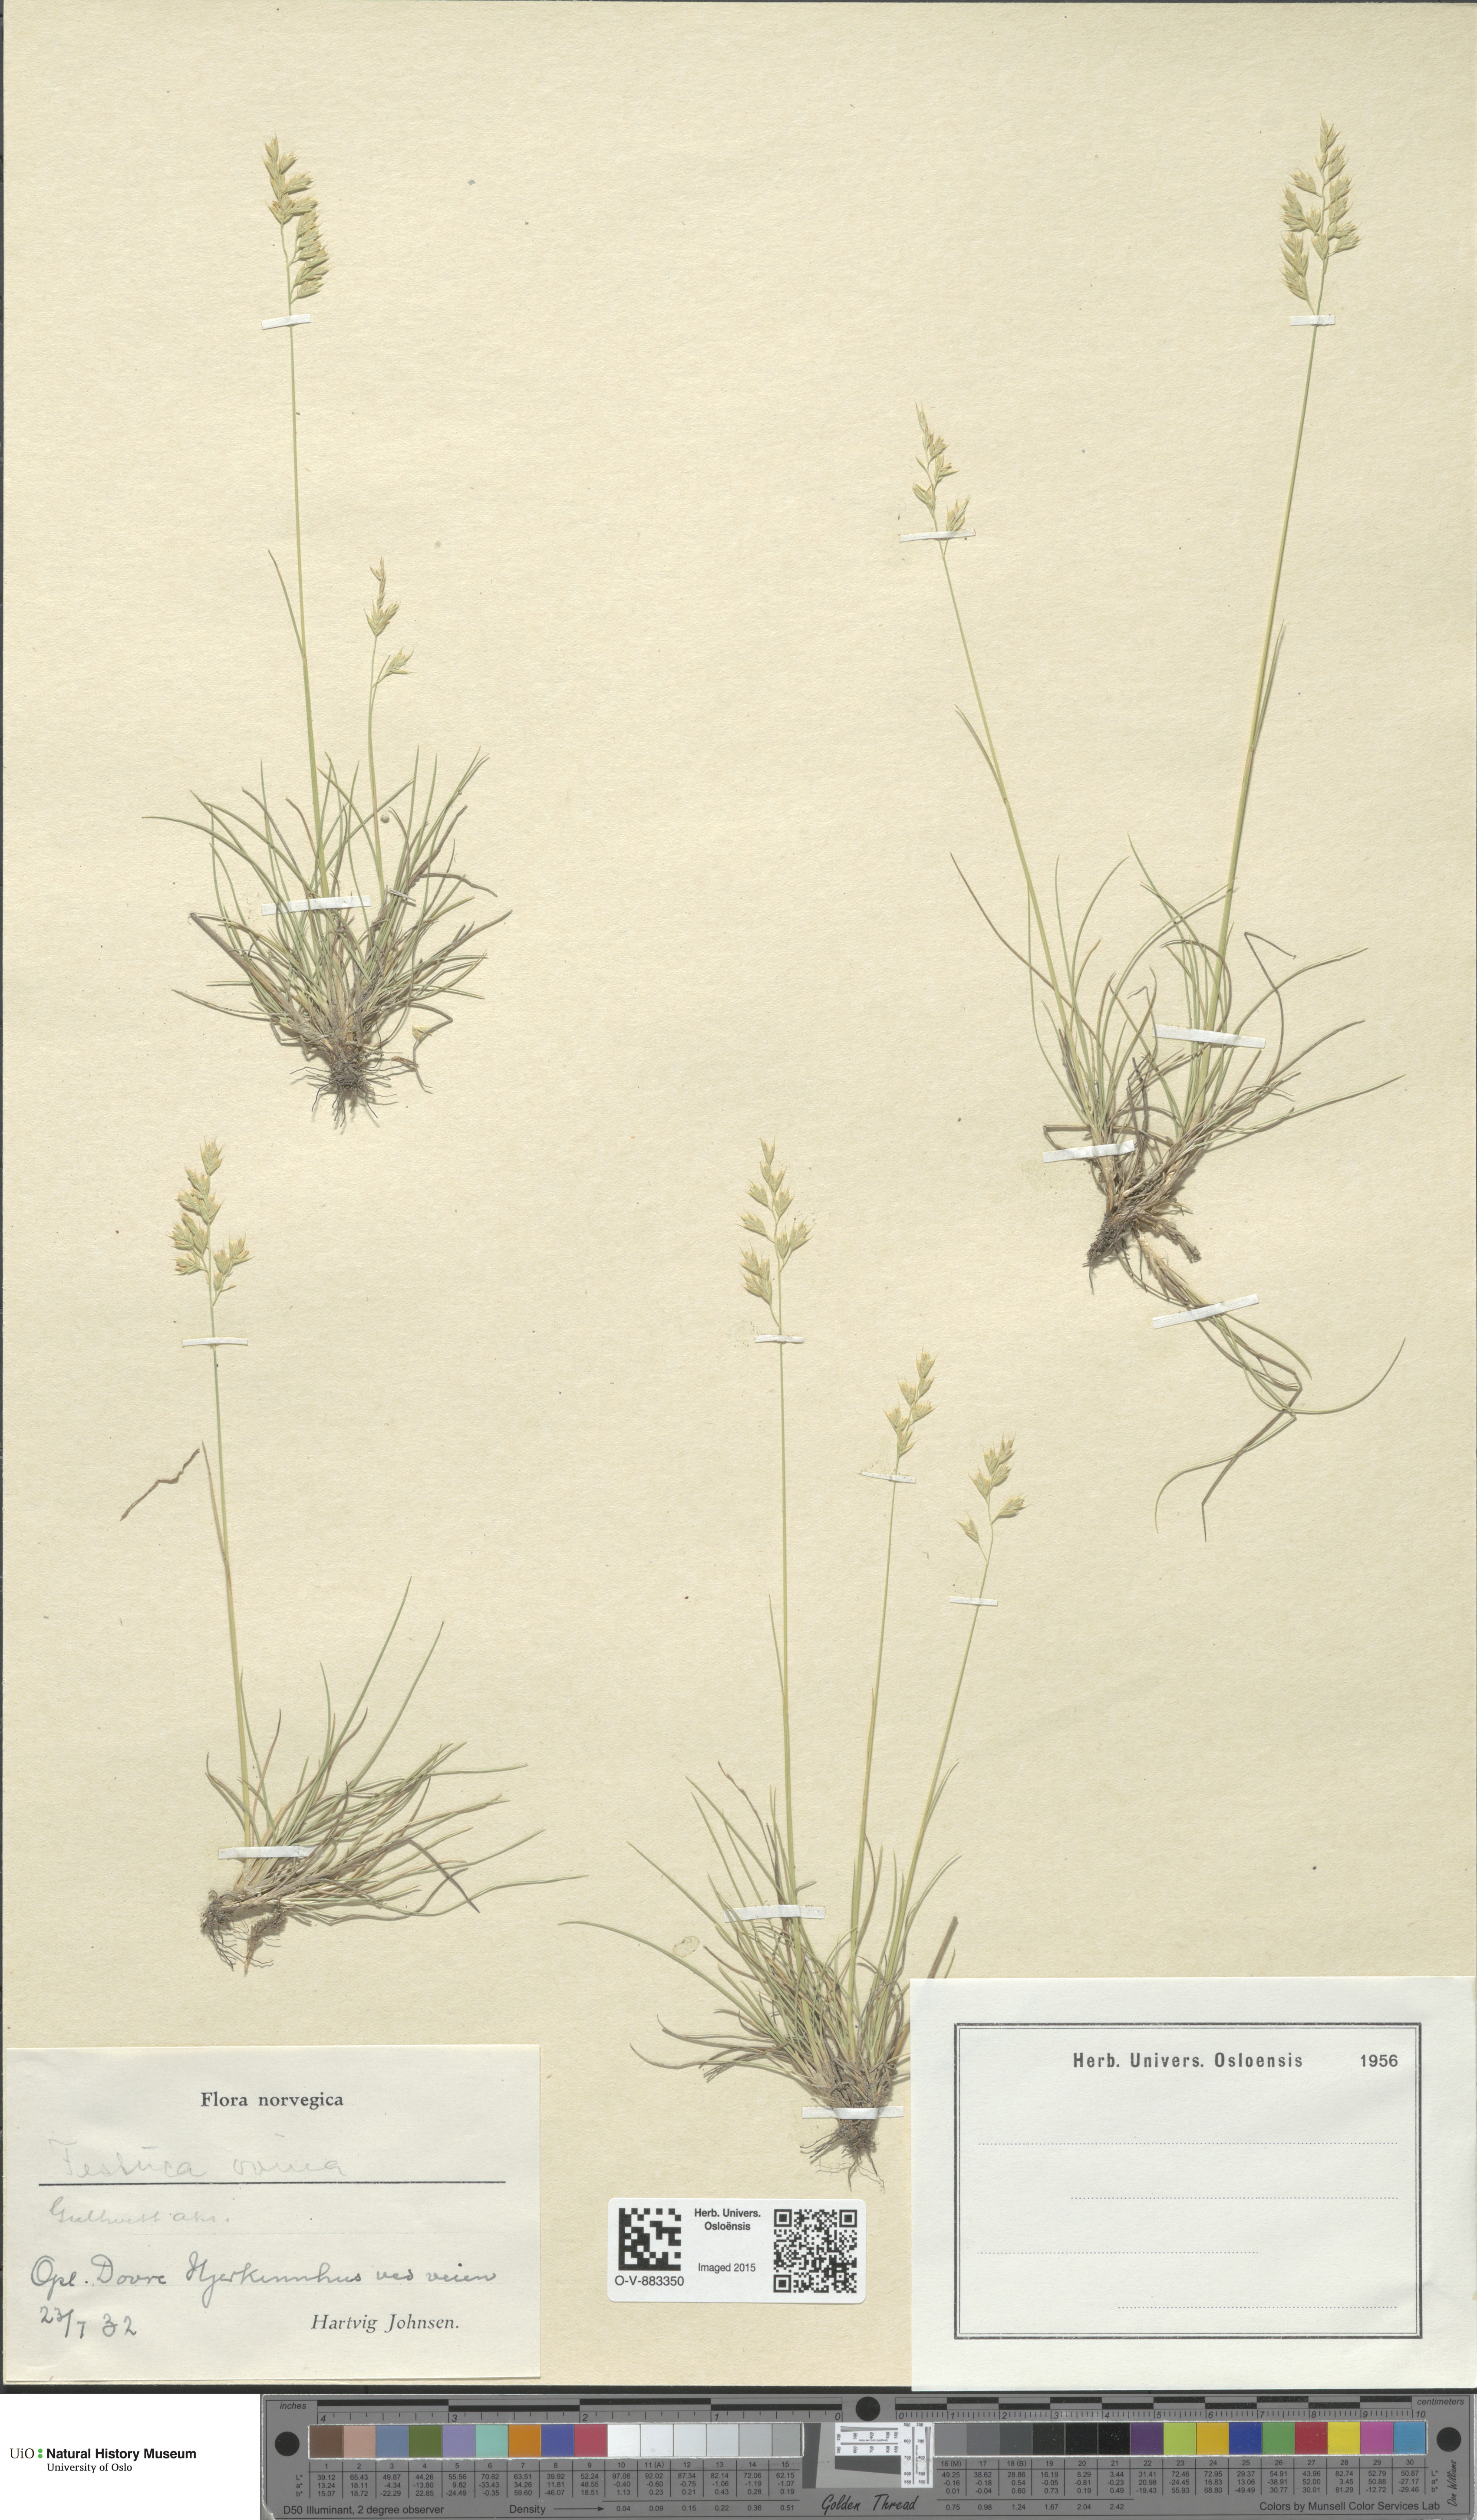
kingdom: Plantae
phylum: Tracheophyta
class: Liliopsida
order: Poales
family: Poaceae
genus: Festuca
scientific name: Festuca ovina
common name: Sheep fescue
